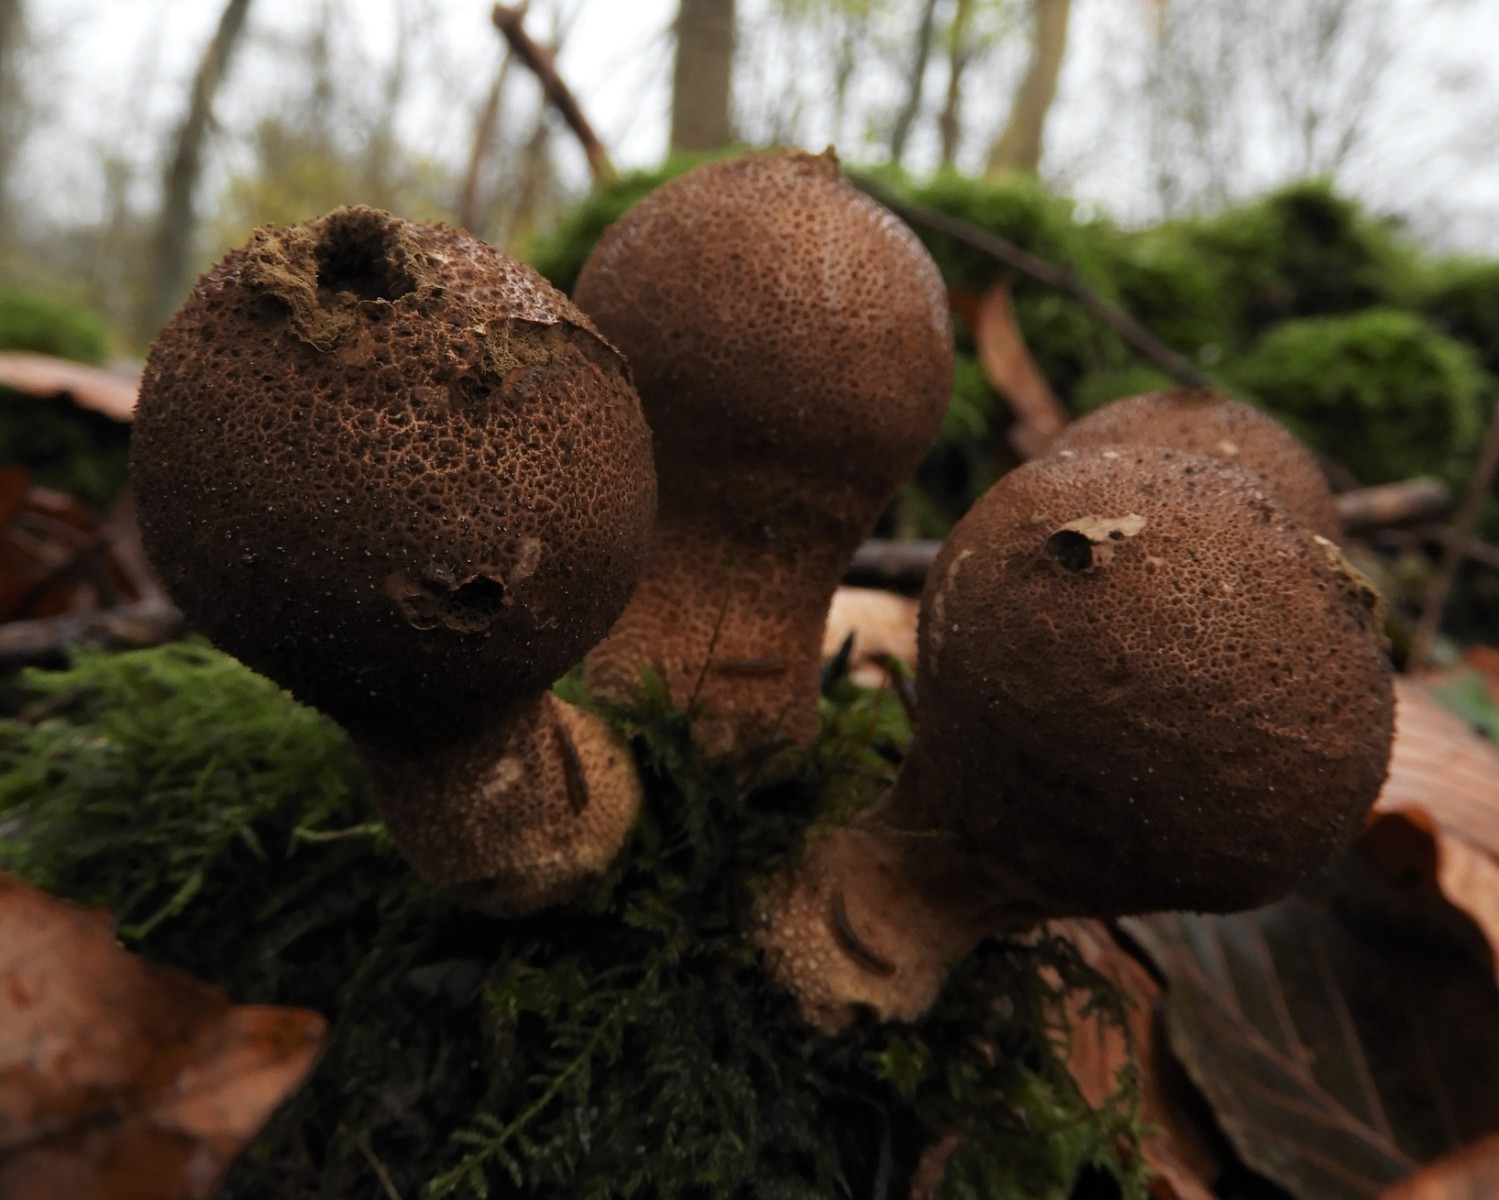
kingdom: Fungi
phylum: Basidiomycota
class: Agaricomycetes
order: Agaricales
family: Lycoperdaceae
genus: Apioperdon
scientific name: Apioperdon pyriforme
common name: pære-støvbold
